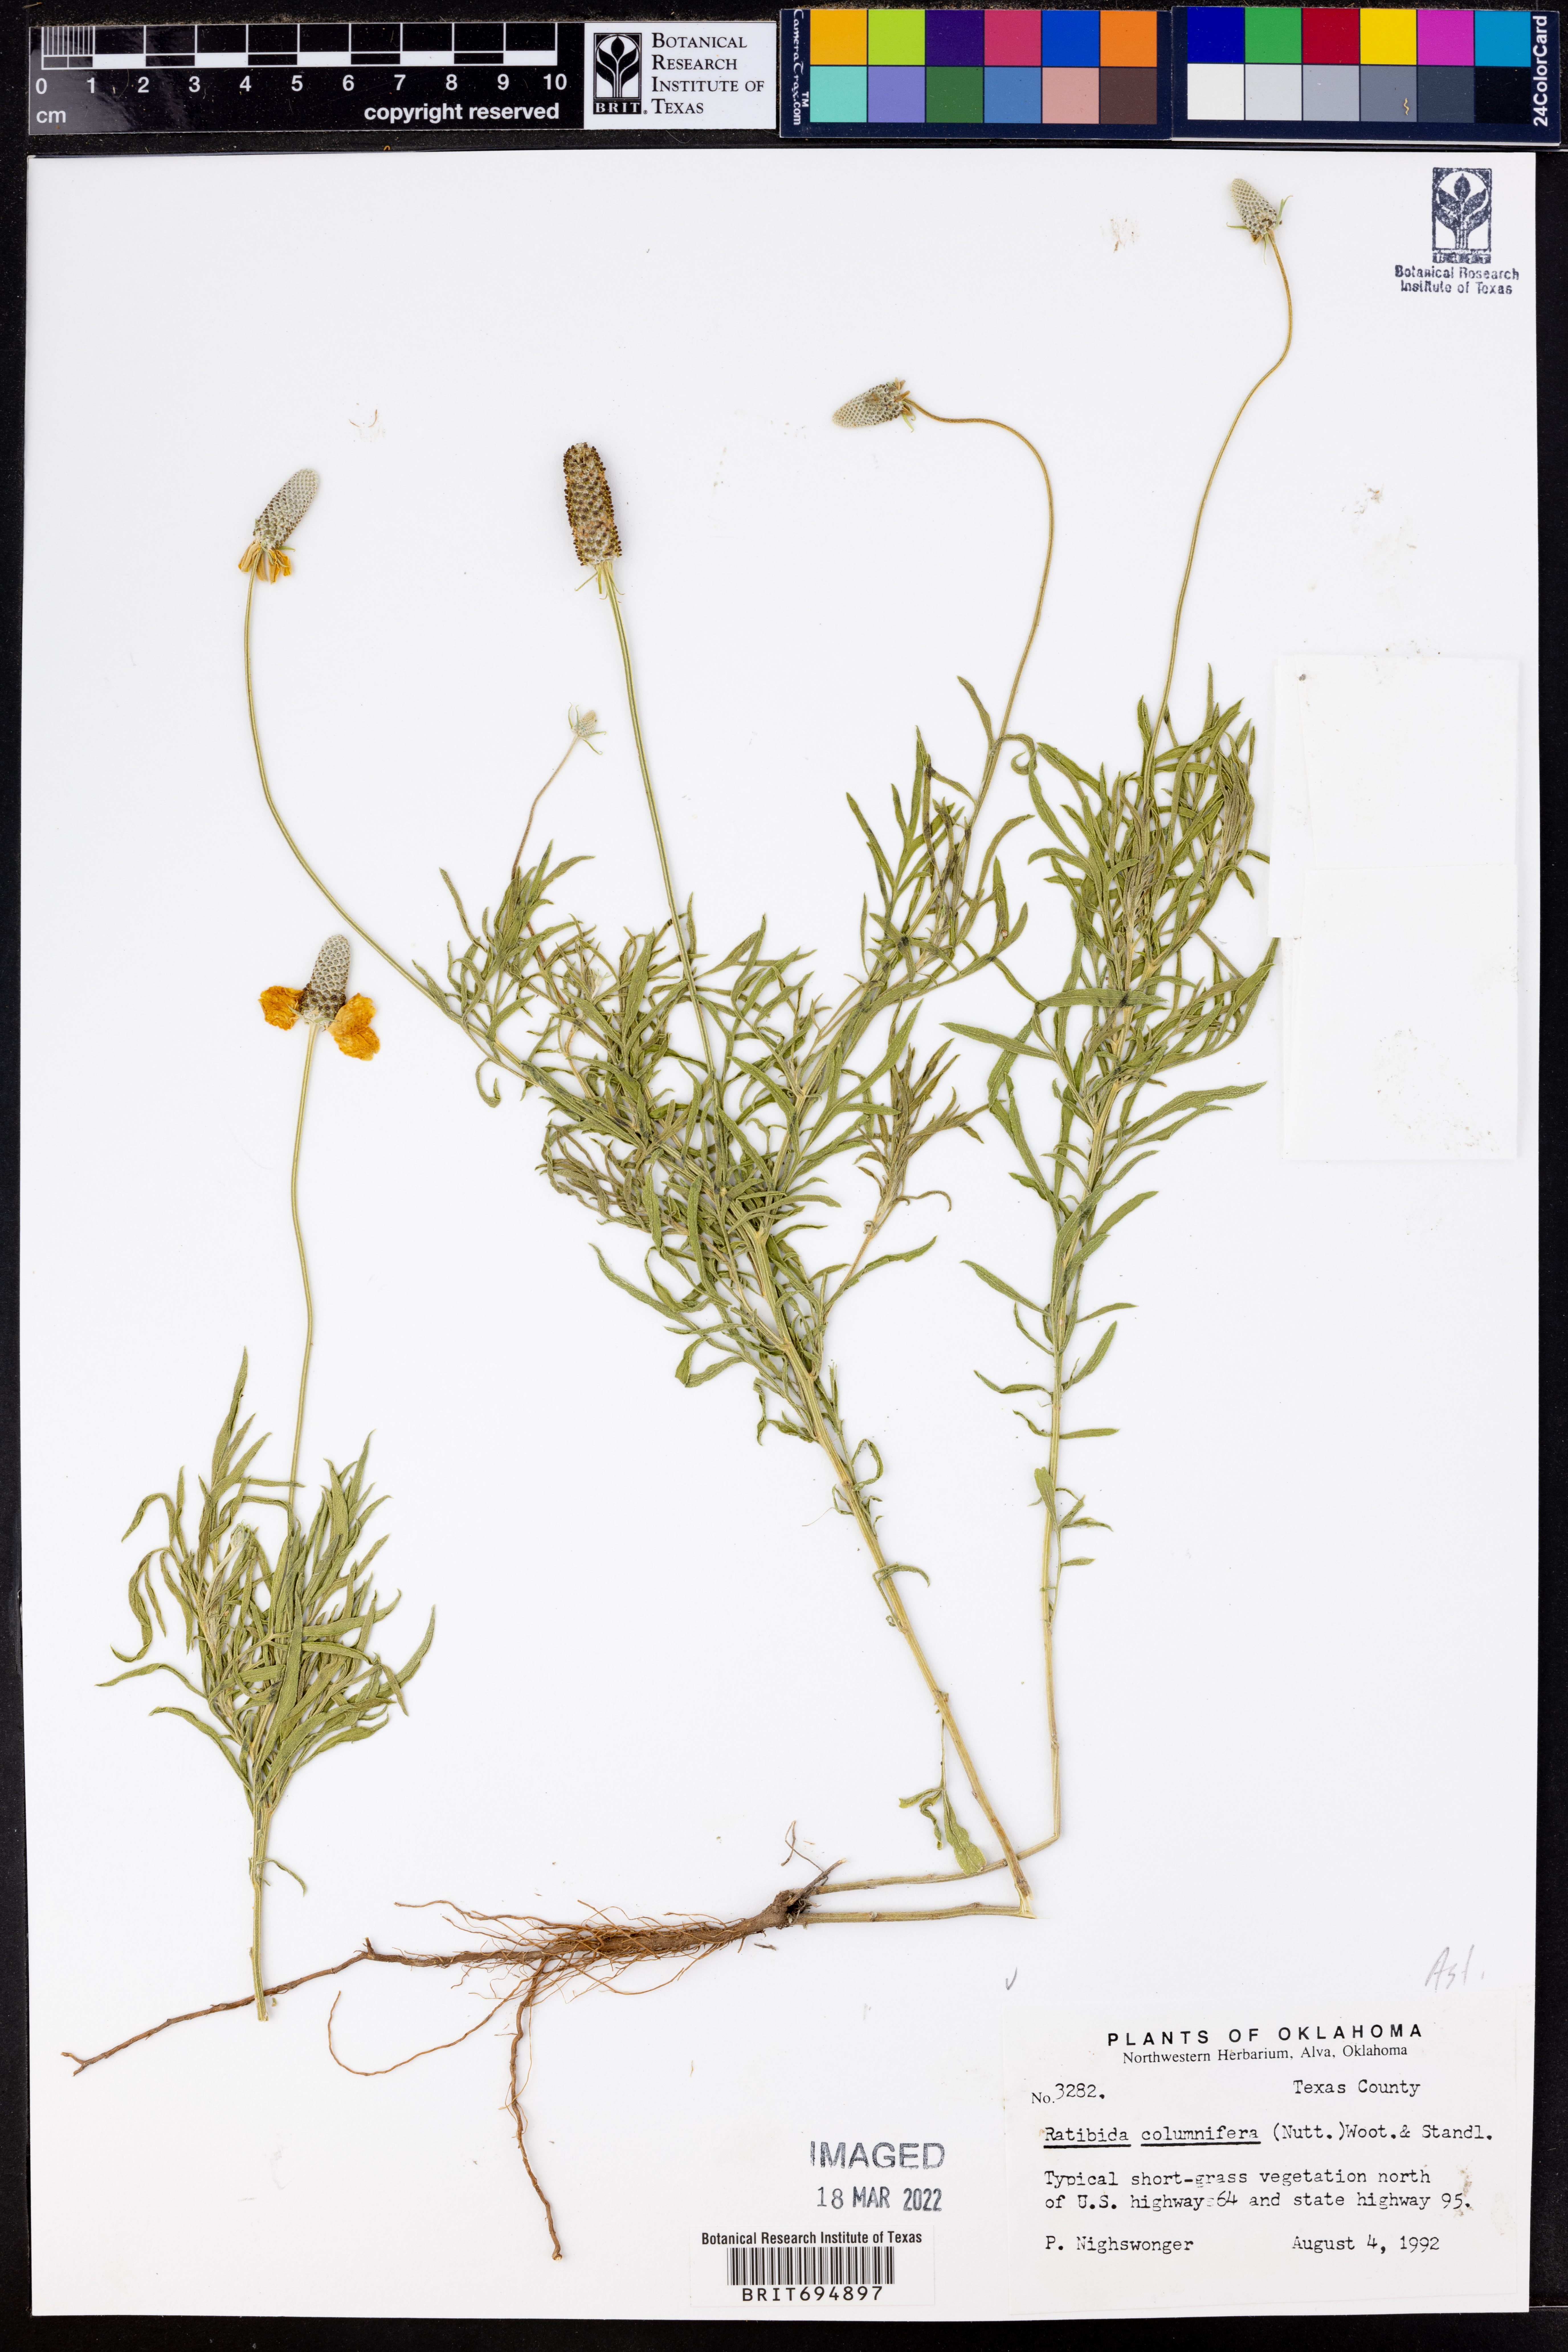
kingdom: Plantae
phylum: Tracheophyta
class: Magnoliopsida
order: Asterales
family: Asteraceae
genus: Ratibida
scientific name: Ratibida columnifera
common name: Prairie coneflower
